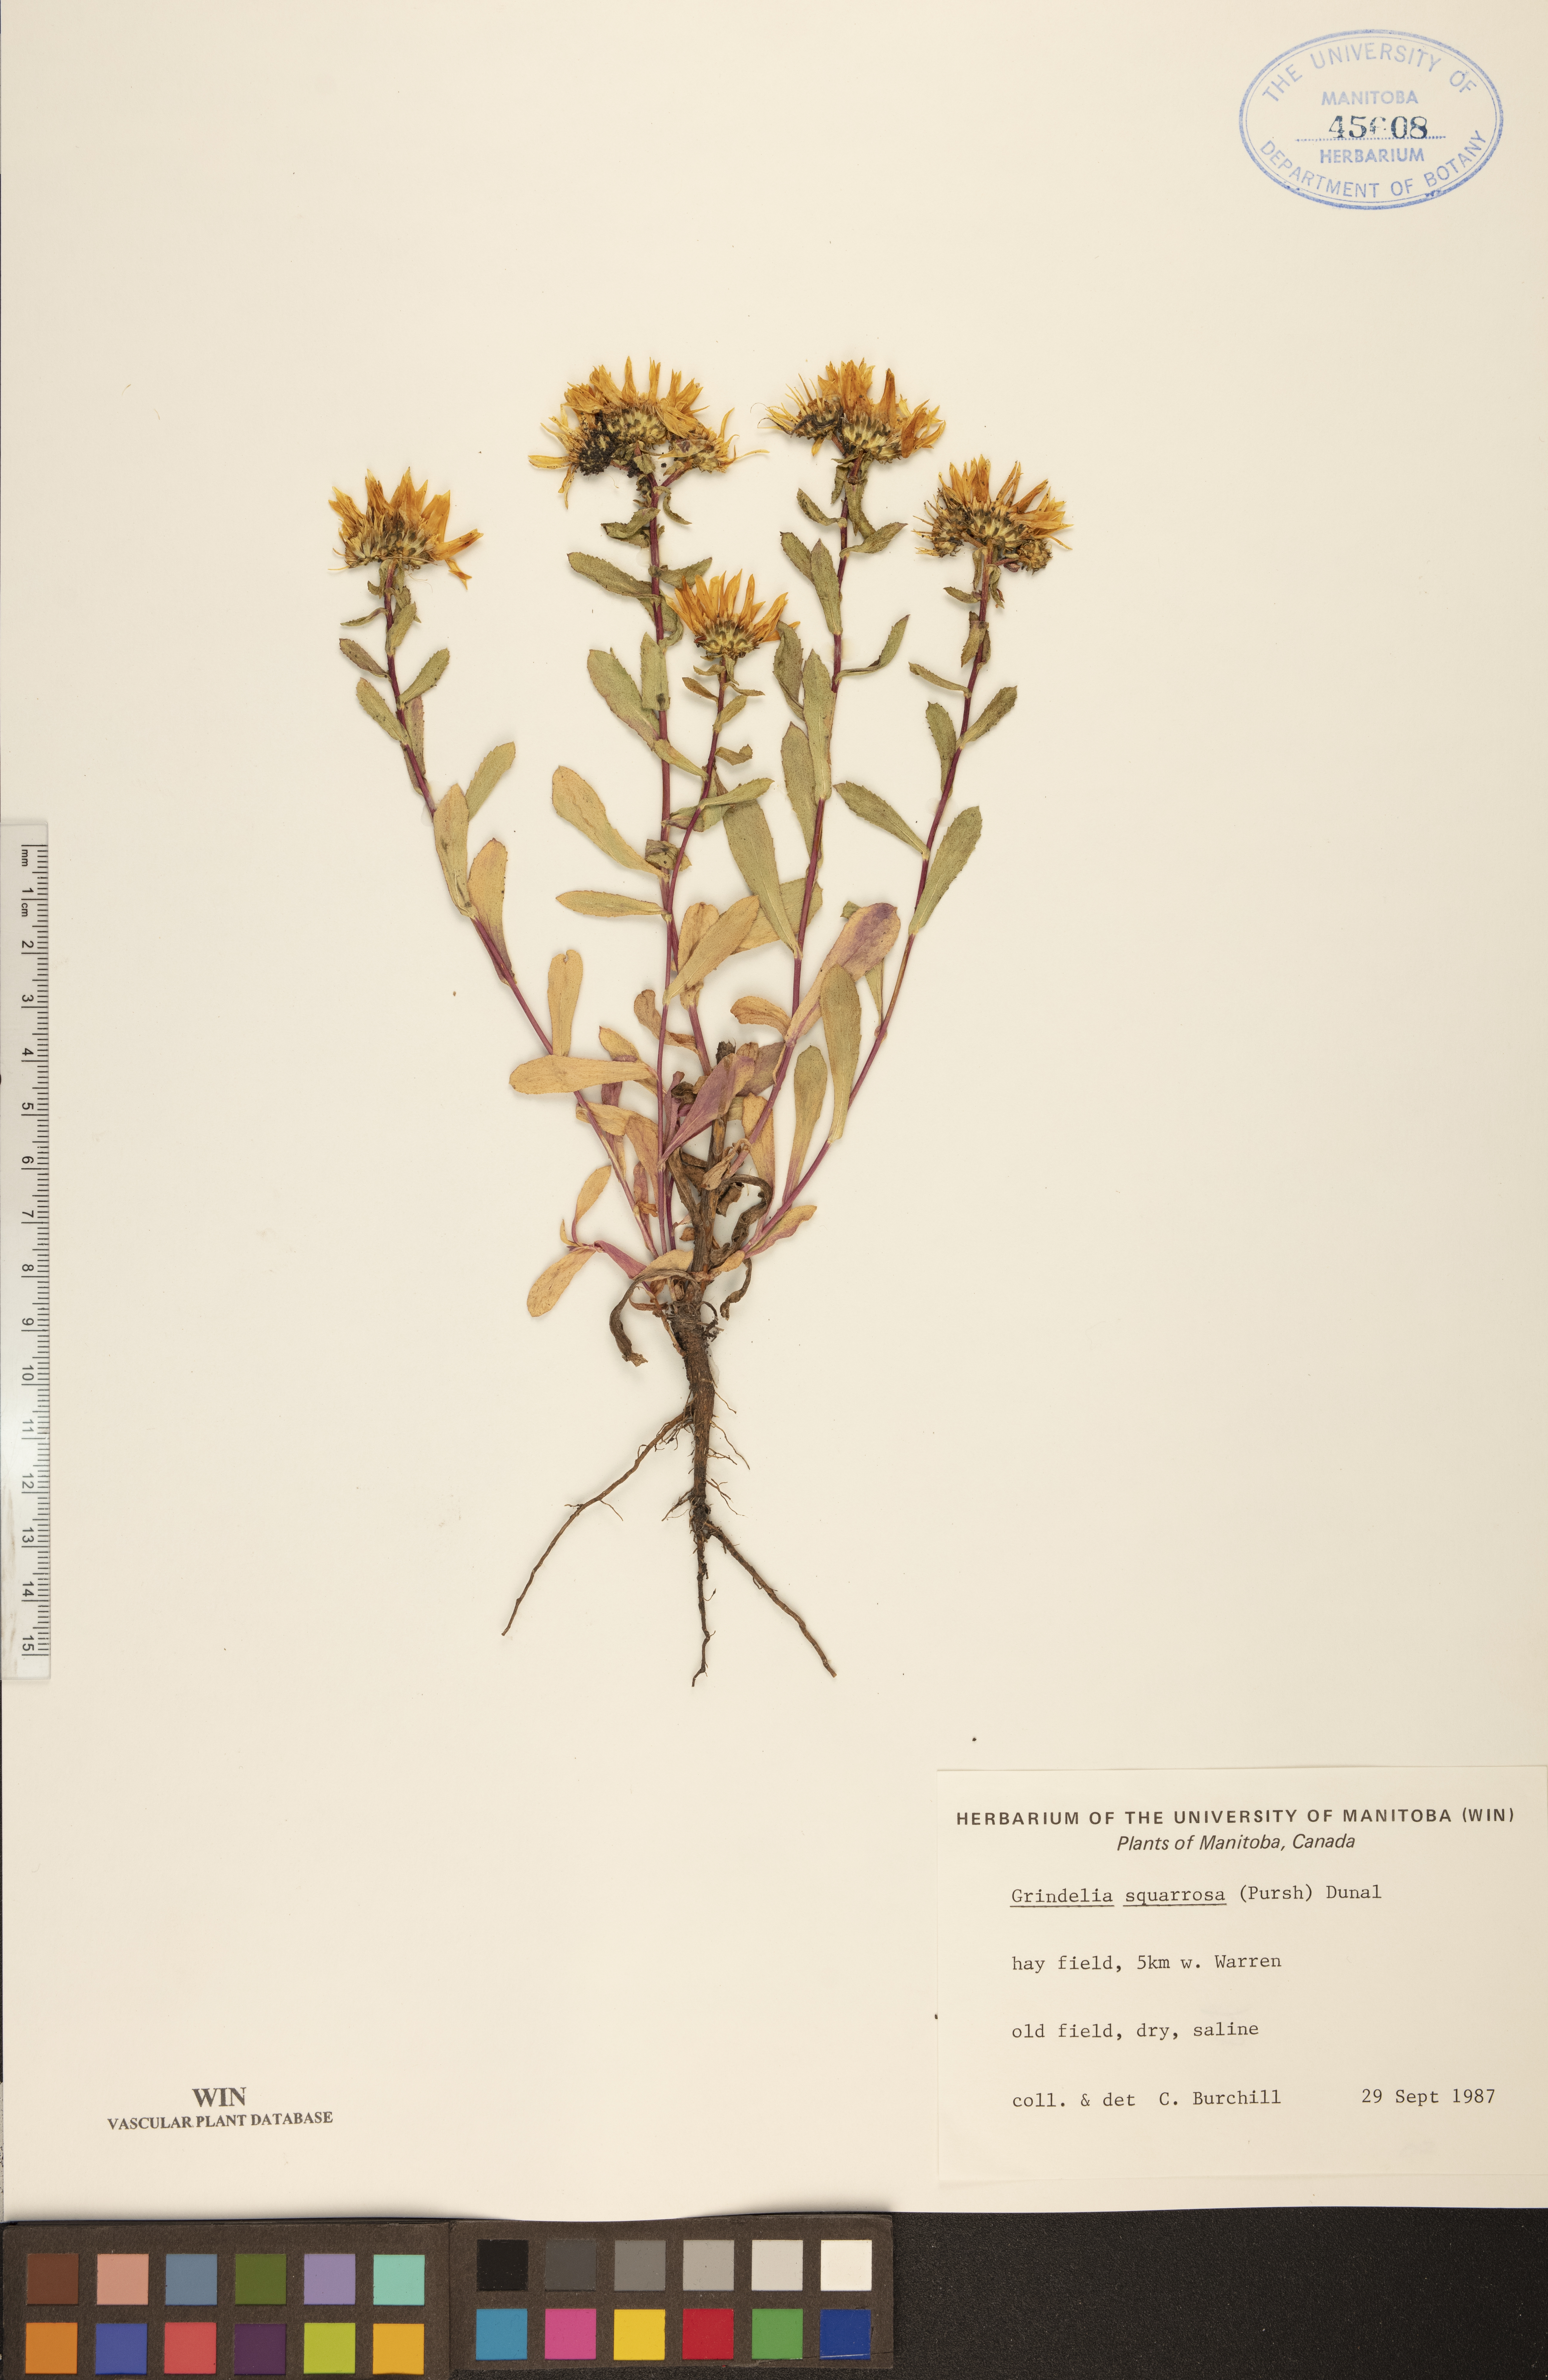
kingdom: Plantae
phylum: Tracheophyta
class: Magnoliopsida
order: Asterales
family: Asteraceae
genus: Grindelia
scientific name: Grindelia squarrosa
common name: Curly-cup gumweed
